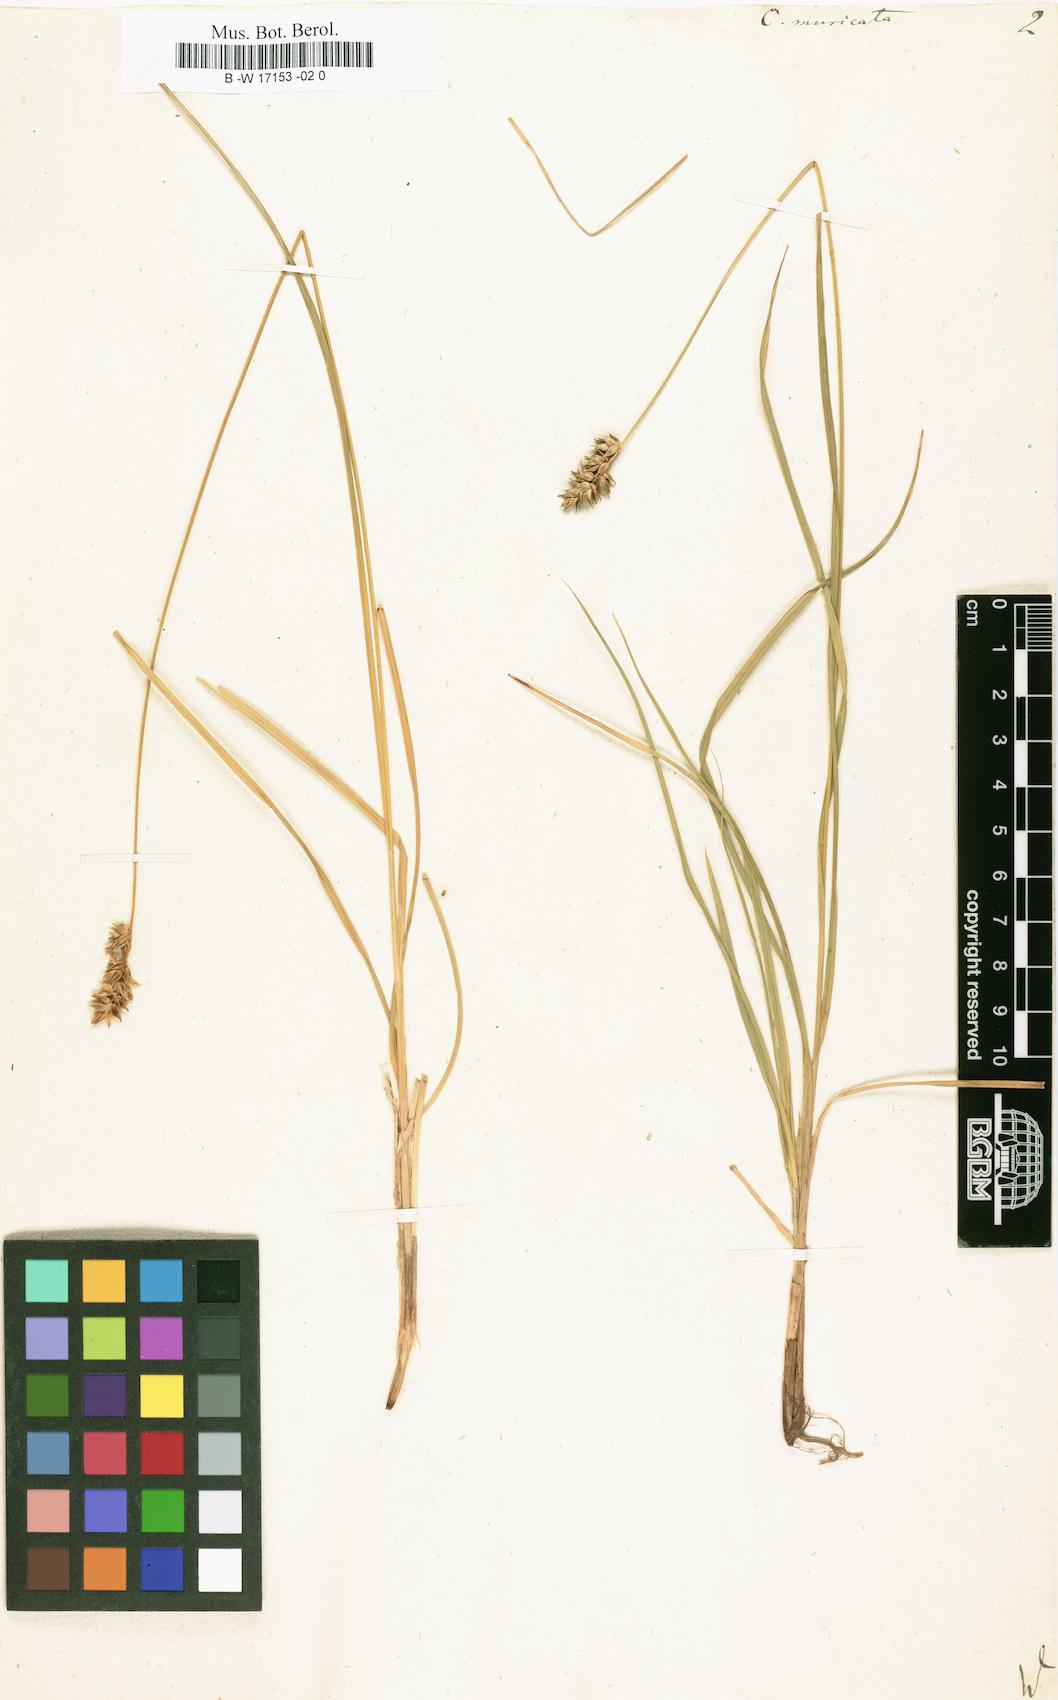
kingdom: Plantae
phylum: Tracheophyta
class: Liliopsida
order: Poales
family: Cyperaceae
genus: Carex
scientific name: Carex muricata
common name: Rough sedge
